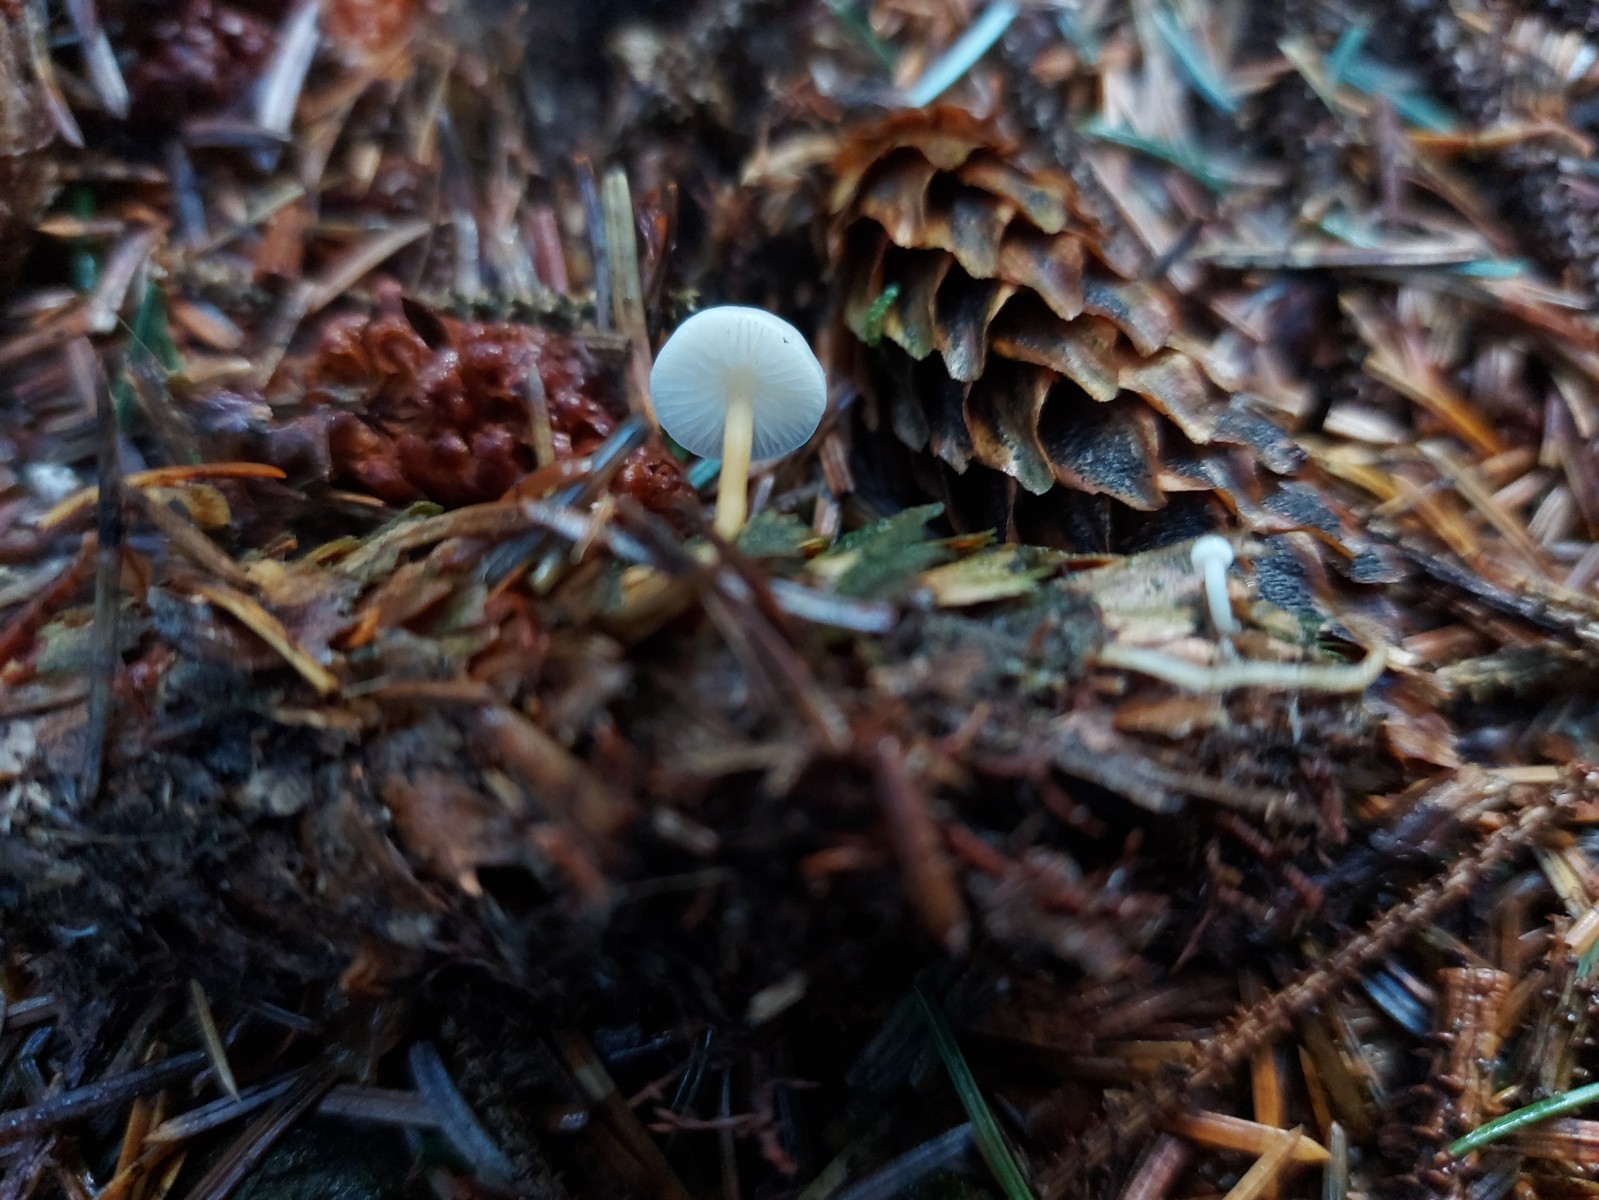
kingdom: Fungi
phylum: Basidiomycota
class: Agaricomycetes
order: Agaricales
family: Physalacriaceae
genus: Strobilurus
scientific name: Strobilurus esculentus
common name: gran-koglehat
